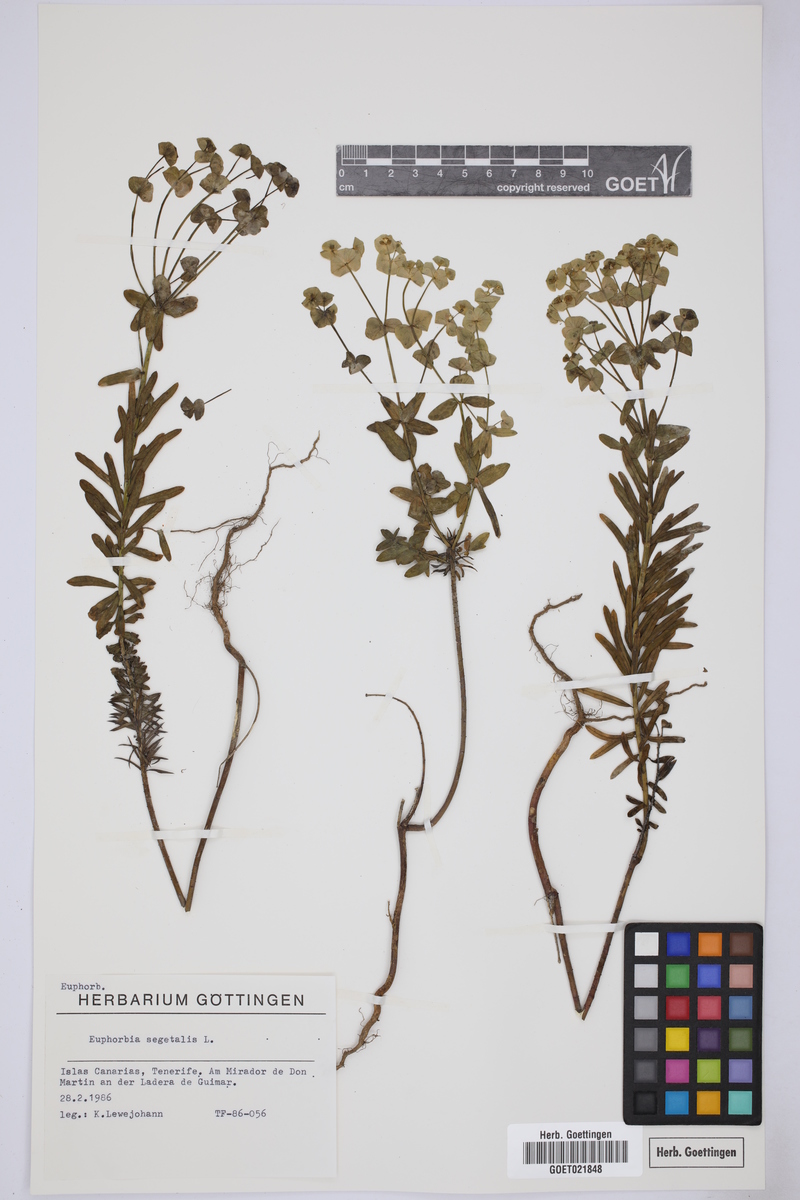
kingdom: Plantae
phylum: Tracheophyta
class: Magnoliopsida
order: Malpighiales
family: Euphorbiaceae
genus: Euphorbia
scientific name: Euphorbia segetalis
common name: Corn spurge
